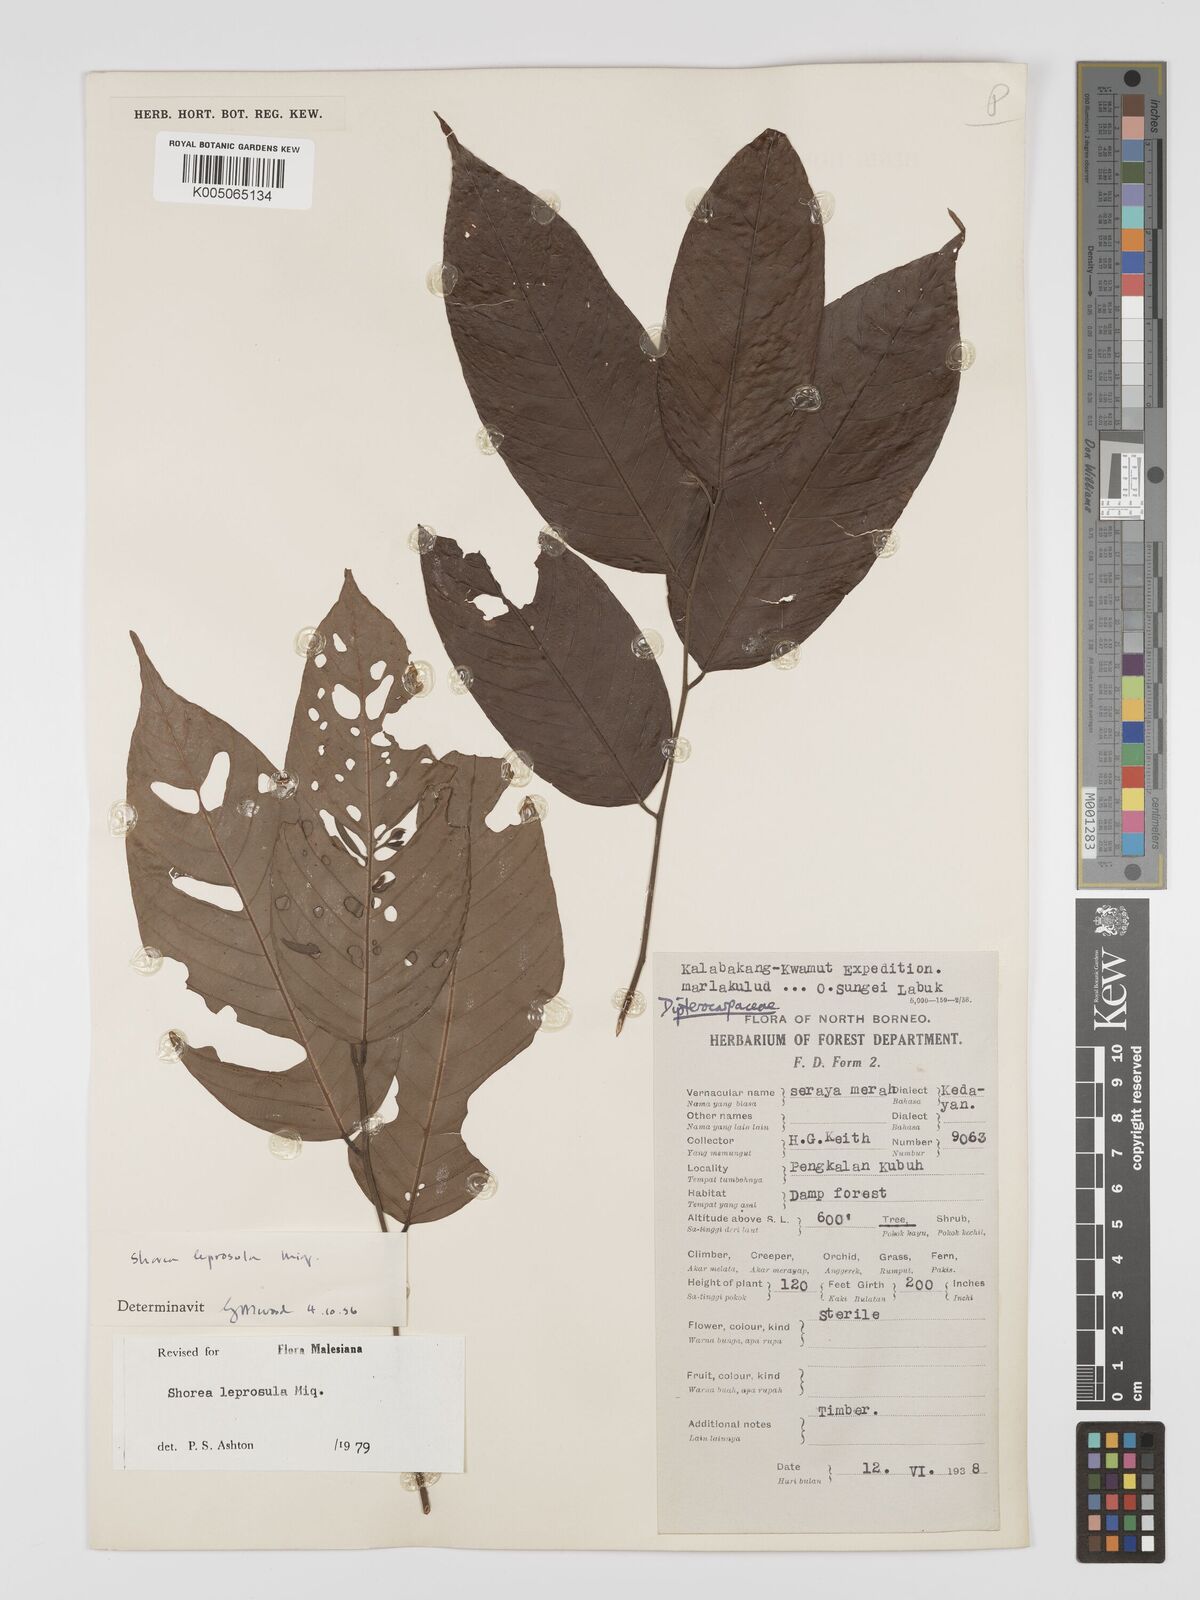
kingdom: Plantae
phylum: Tracheophyta
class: Magnoliopsida
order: Malvales
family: Dipterocarpaceae
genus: Shorea
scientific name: Shorea leprosula
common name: Light red meranti
